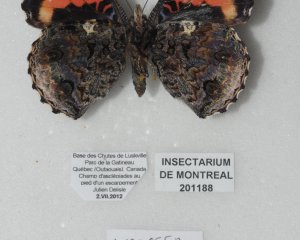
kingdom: Animalia
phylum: Arthropoda
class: Insecta
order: Lepidoptera
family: Nymphalidae
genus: Vanessa
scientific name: Vanessa atalanta
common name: Red Admiral
